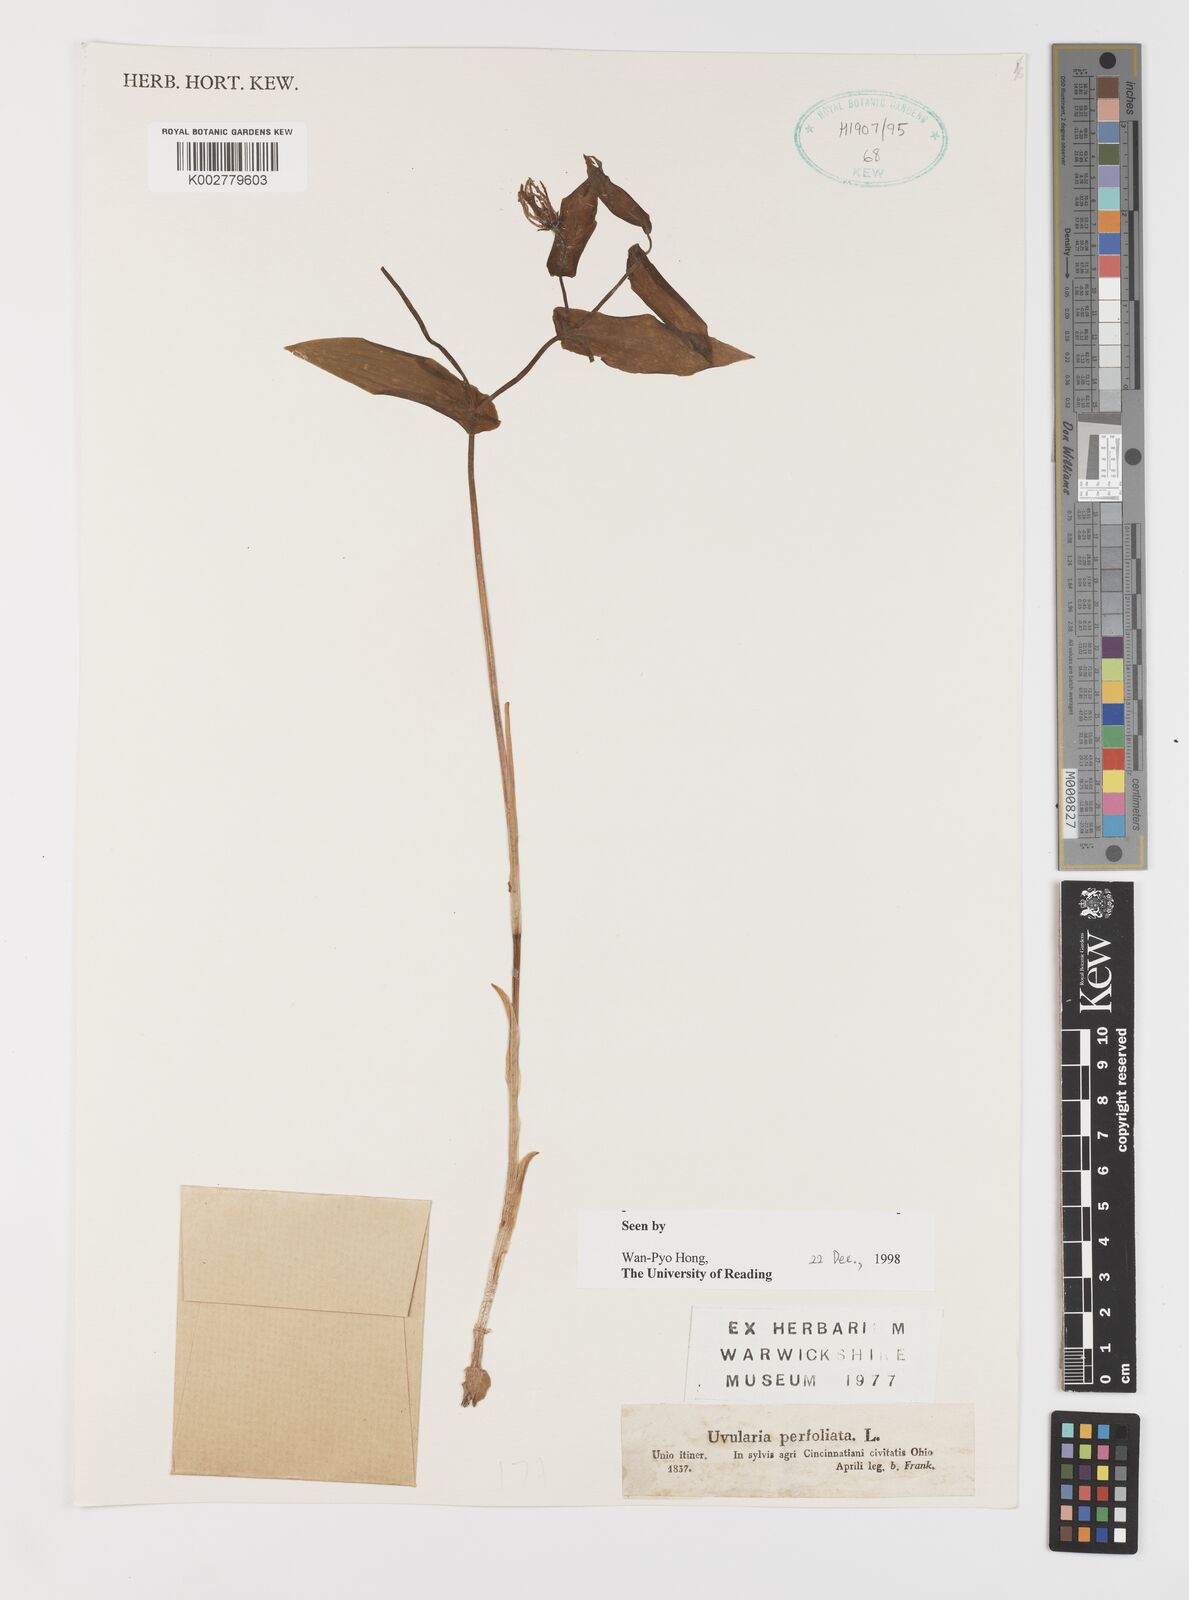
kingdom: Plantae
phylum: Tracheophyta
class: Liliopsida
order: Liliales
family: Colchicaceae
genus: Uvularia
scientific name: Uvularia perfoliata
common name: Perfoliate bellwort
